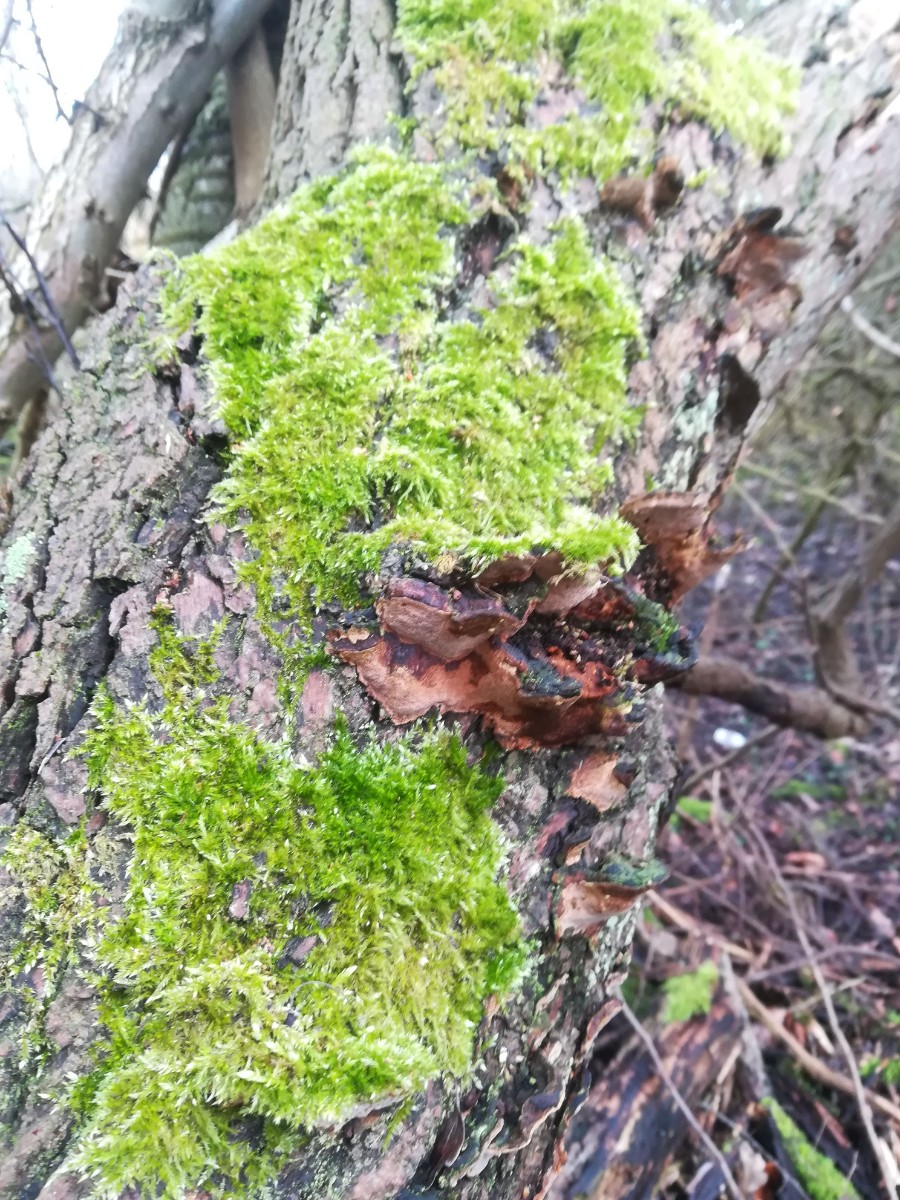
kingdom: Fungi
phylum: Basidiomycota
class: Agaricomycetes
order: Hymenochaetales
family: Hymenochaetaceae
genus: Phellinopsis
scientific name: Phellinopsis conchata
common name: pile-ildporesvamp
